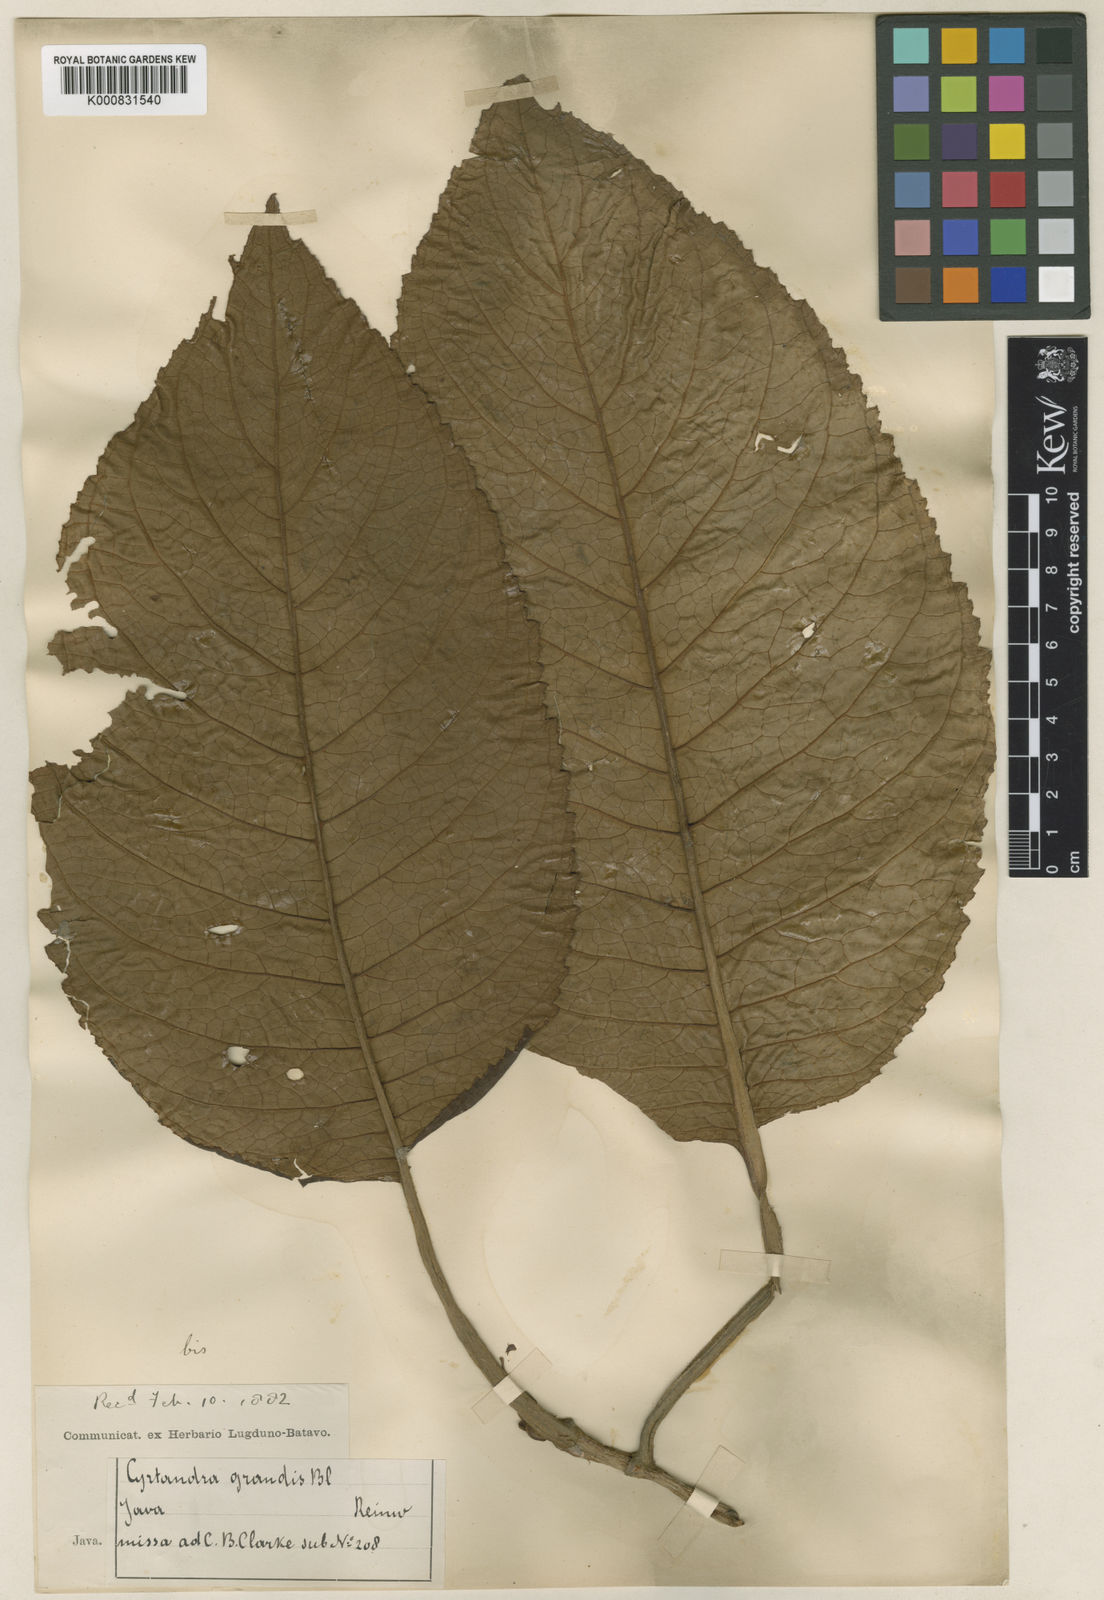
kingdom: Plantae
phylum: Tracheophyta
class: Magnoliopsida
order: Lamiales
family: Gesneriaceae
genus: Cyrtandra
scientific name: Cyrtandra grandis
